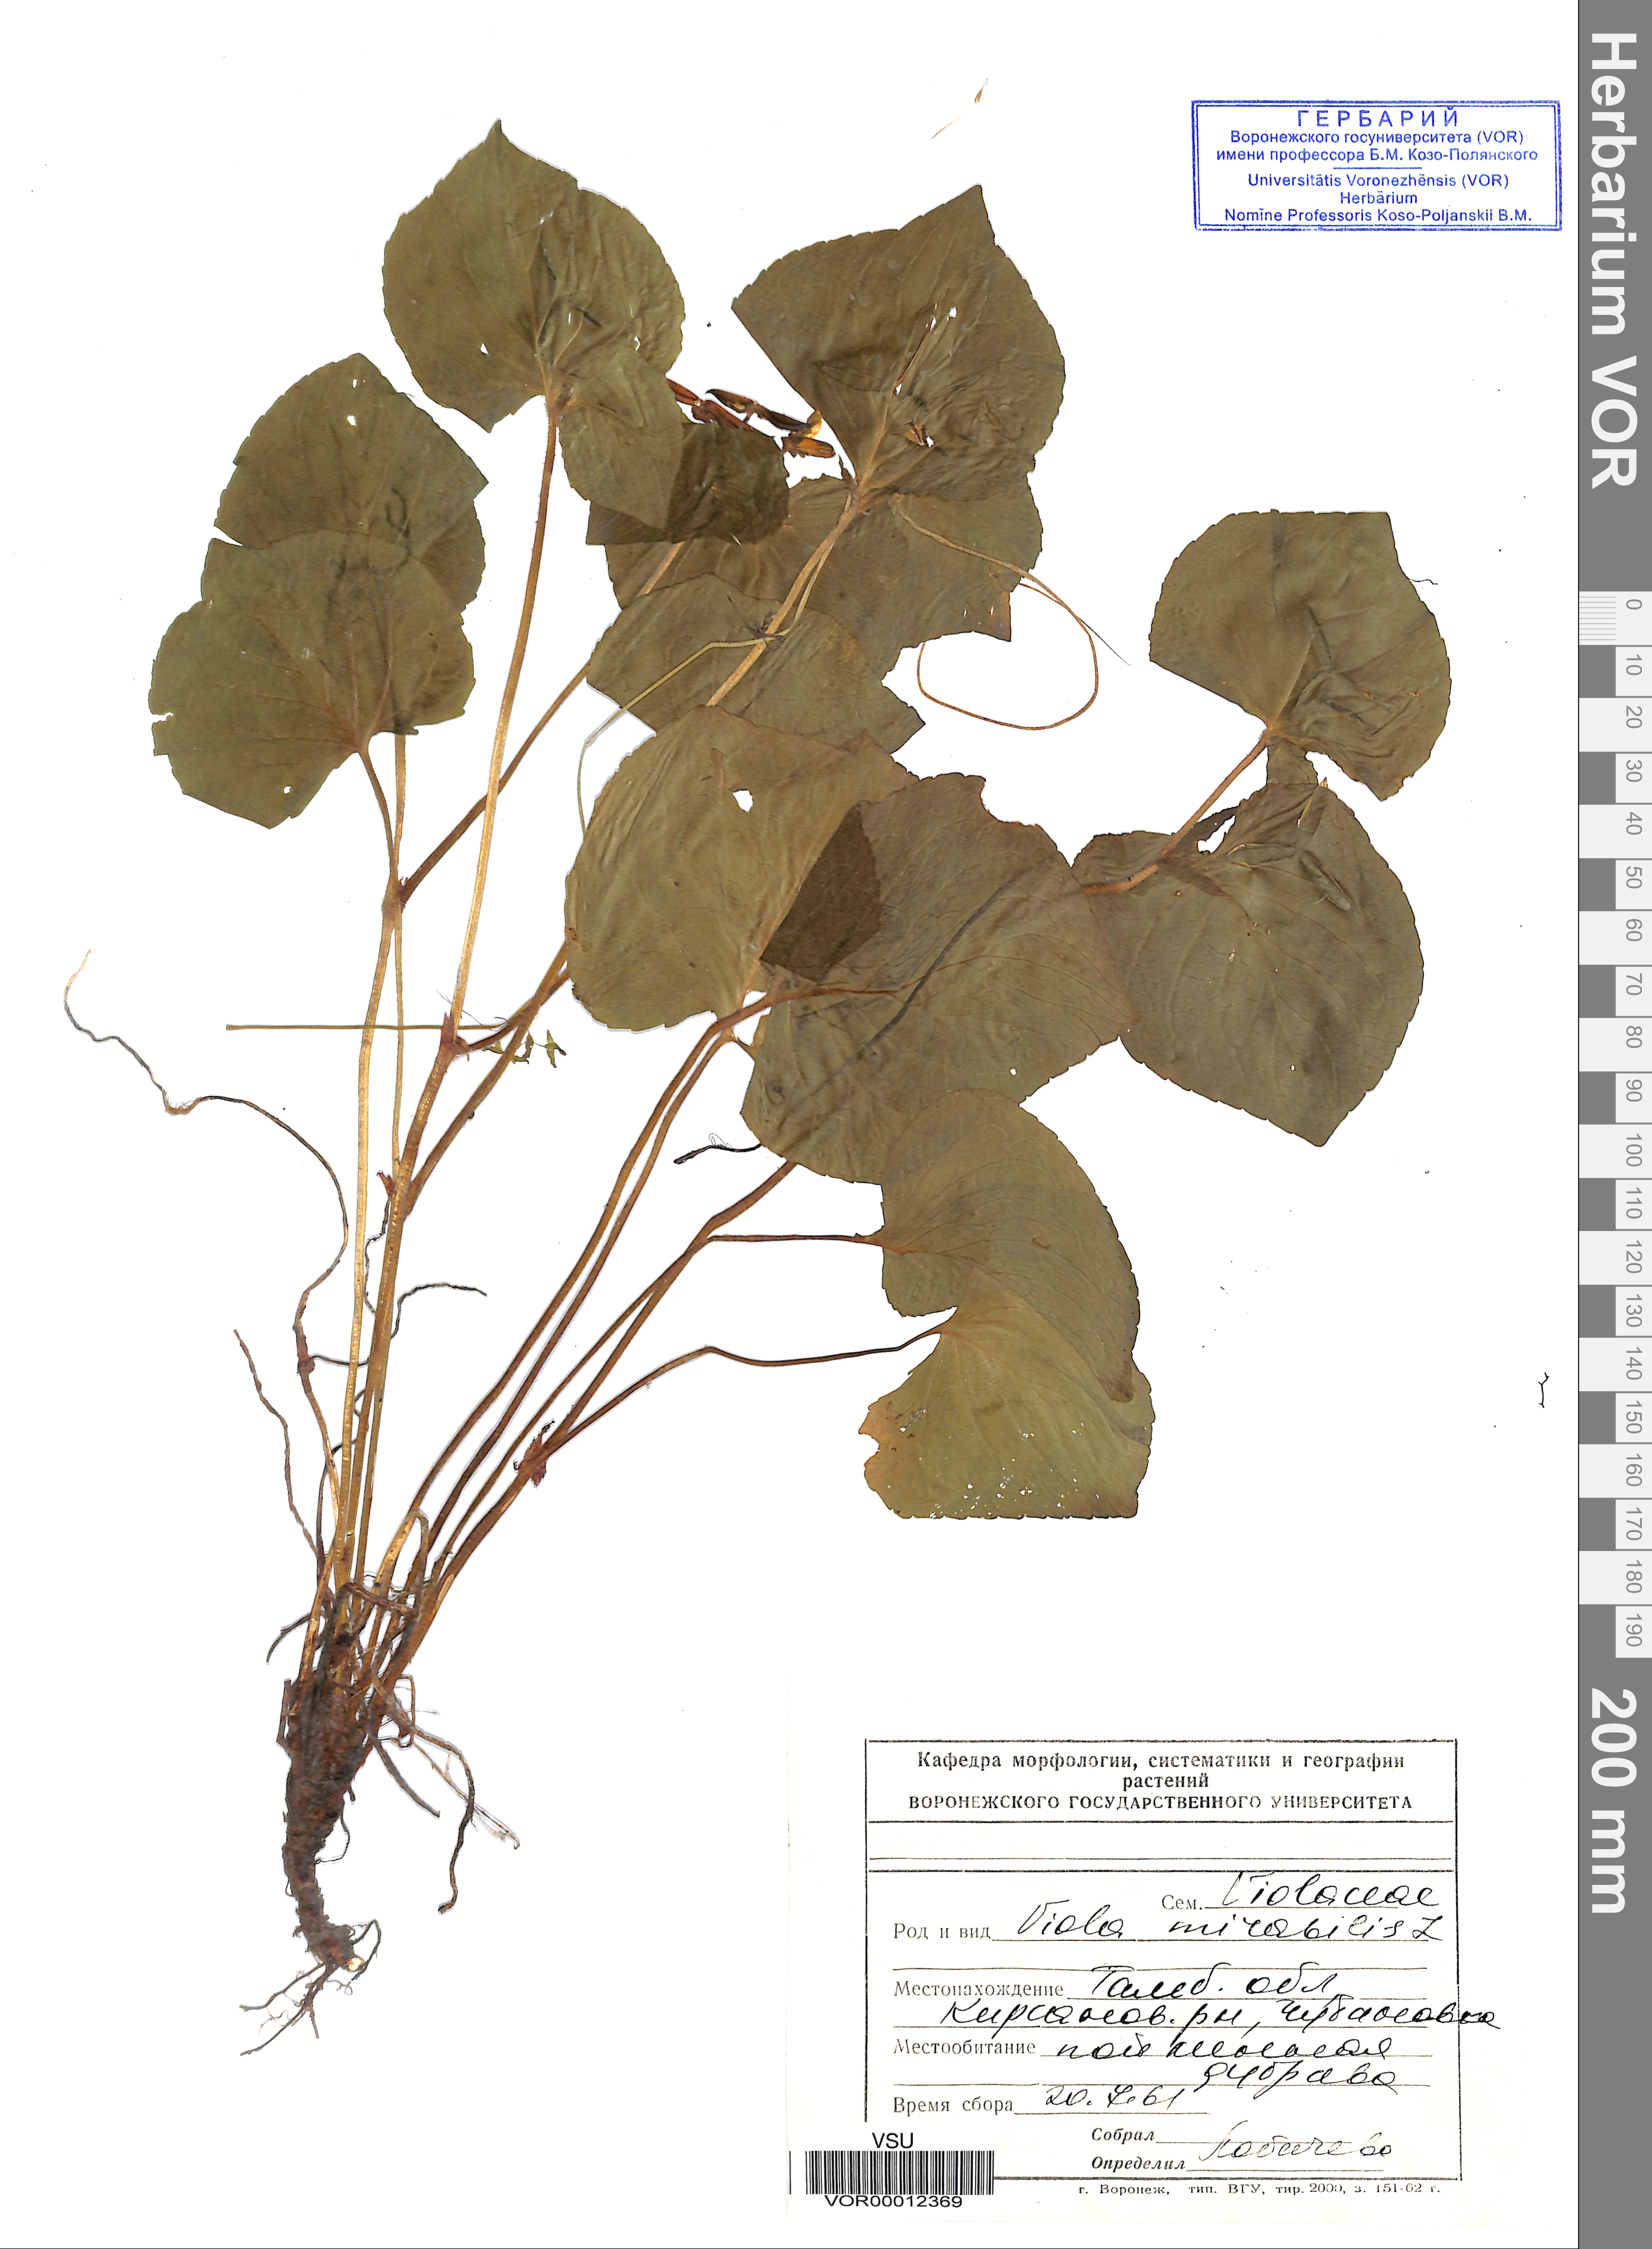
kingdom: Plantae
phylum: Tracheophyta
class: Magnoliopsida
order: Malpighiales
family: Violaceae
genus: Viola
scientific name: Viola mirabilis
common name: Wonder violet
